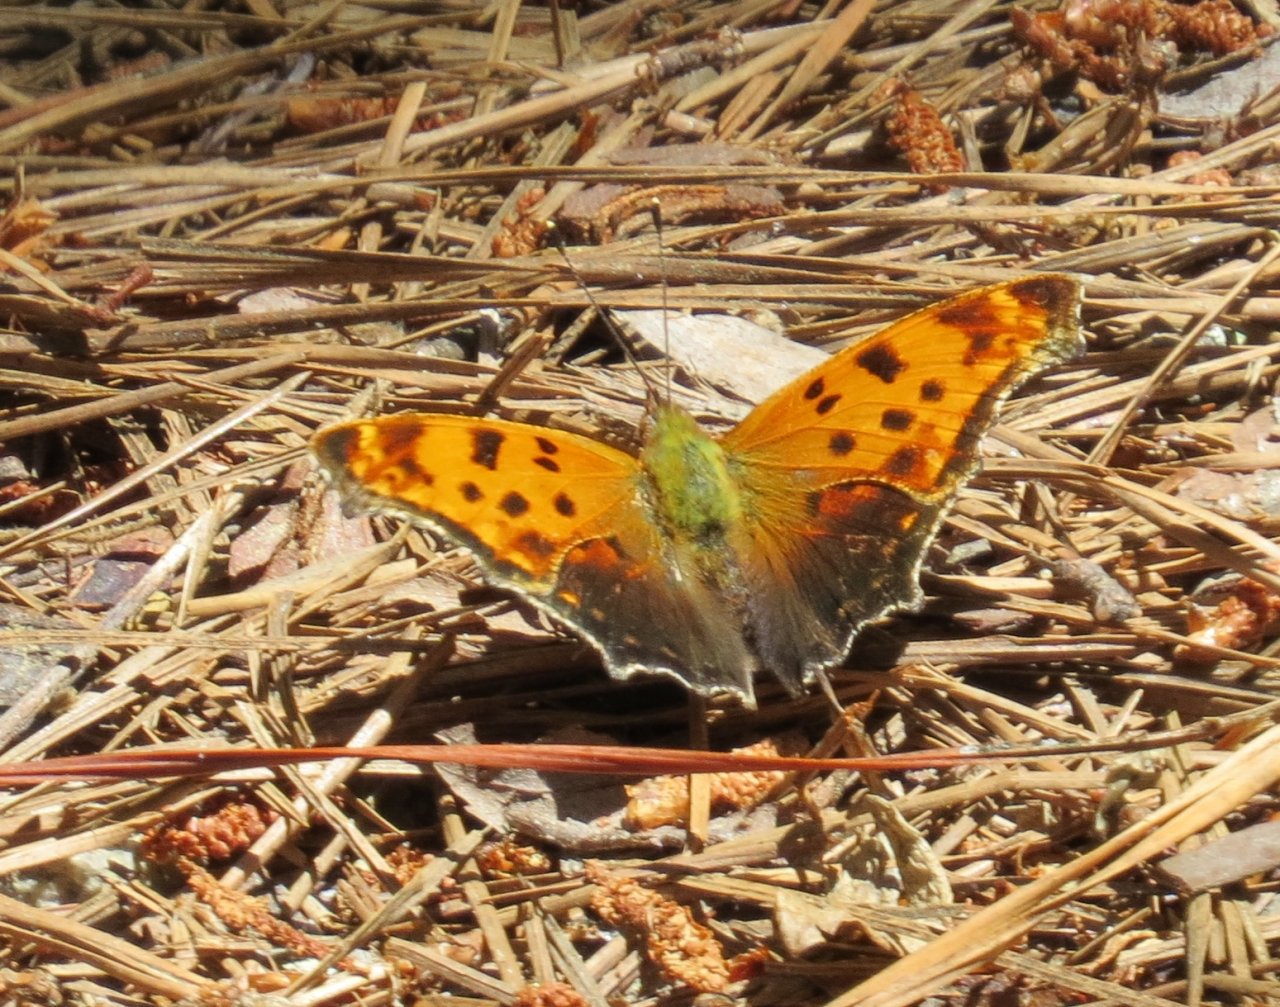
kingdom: Animalia
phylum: Arthropoda
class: Insecta
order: Lepidoptera
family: Nymphalidae
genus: Polygonia
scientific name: Polygonia interrogationis
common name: Question Mark
